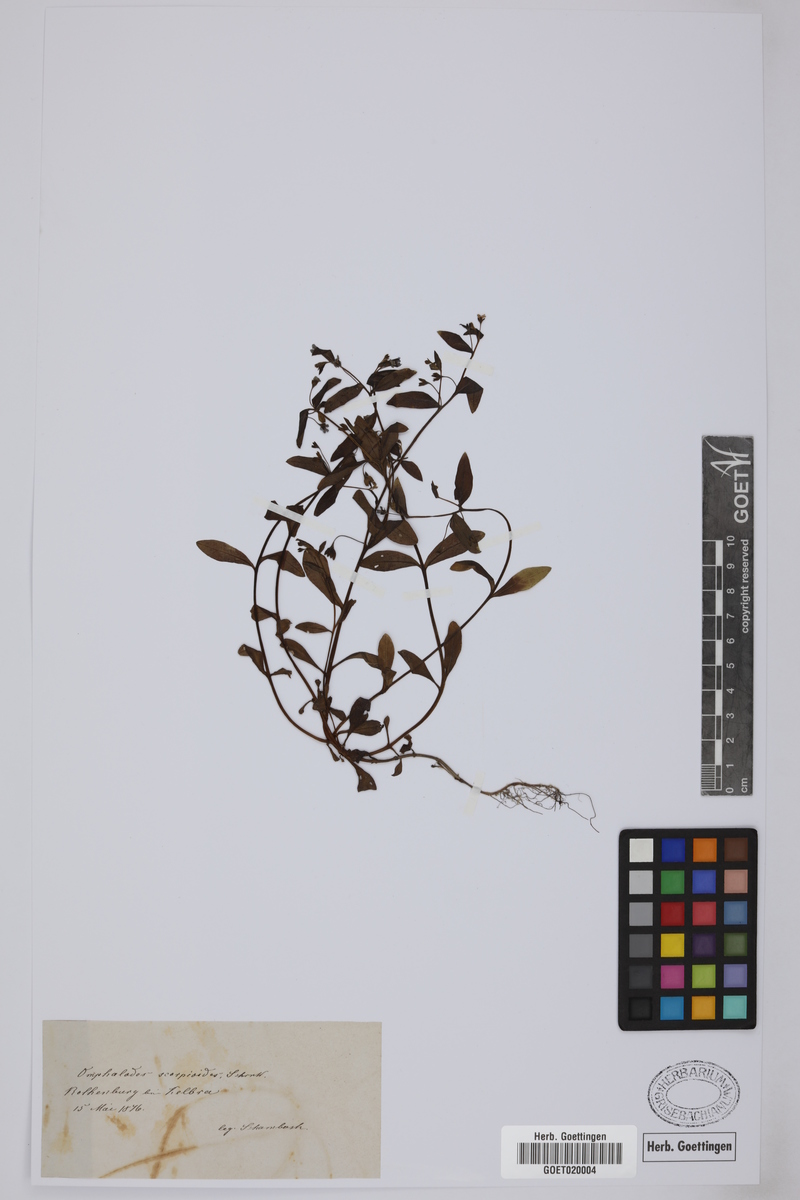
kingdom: Plantae
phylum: Tracheophyta
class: Magnoliopsida
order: Boraginales
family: Boraginaceae
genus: Memoremea
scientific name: Memoremea scorpioides
